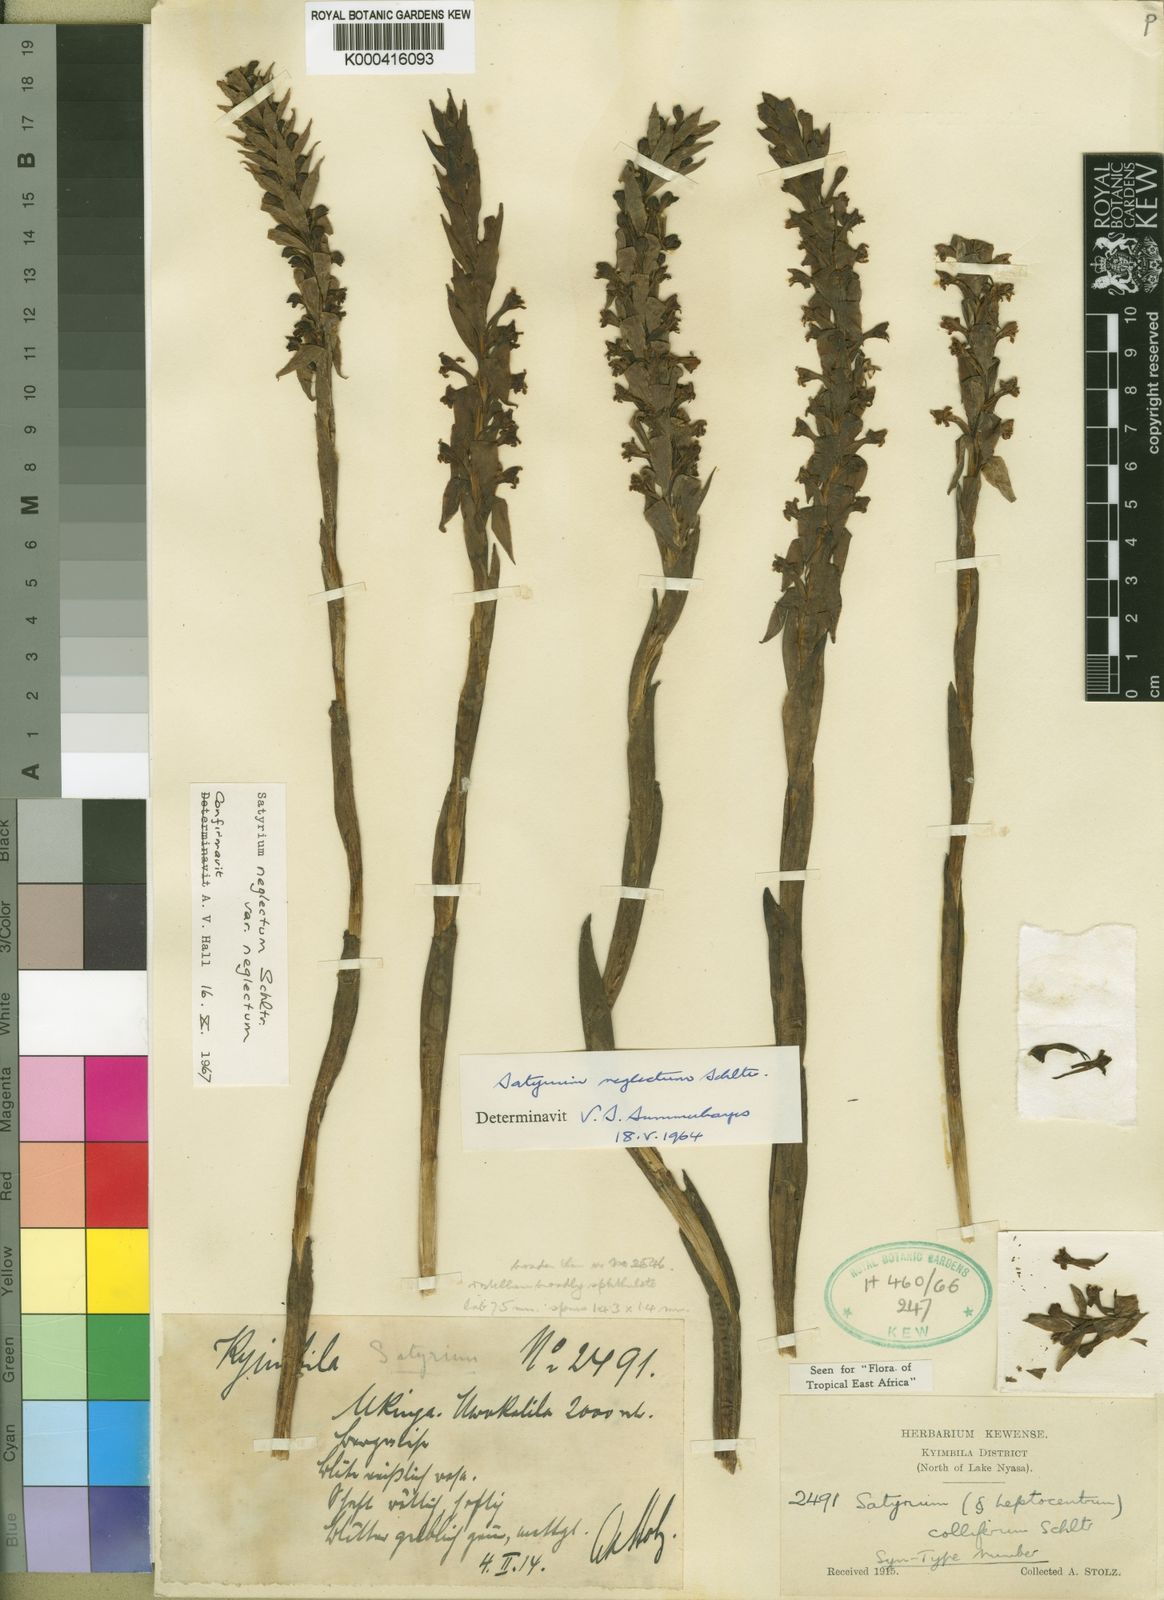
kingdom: Plantae
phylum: Tracheophyta
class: Liliopsida
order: Asparagales
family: Orchidaceae
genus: Satyrium
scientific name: Satyrium neglectum
